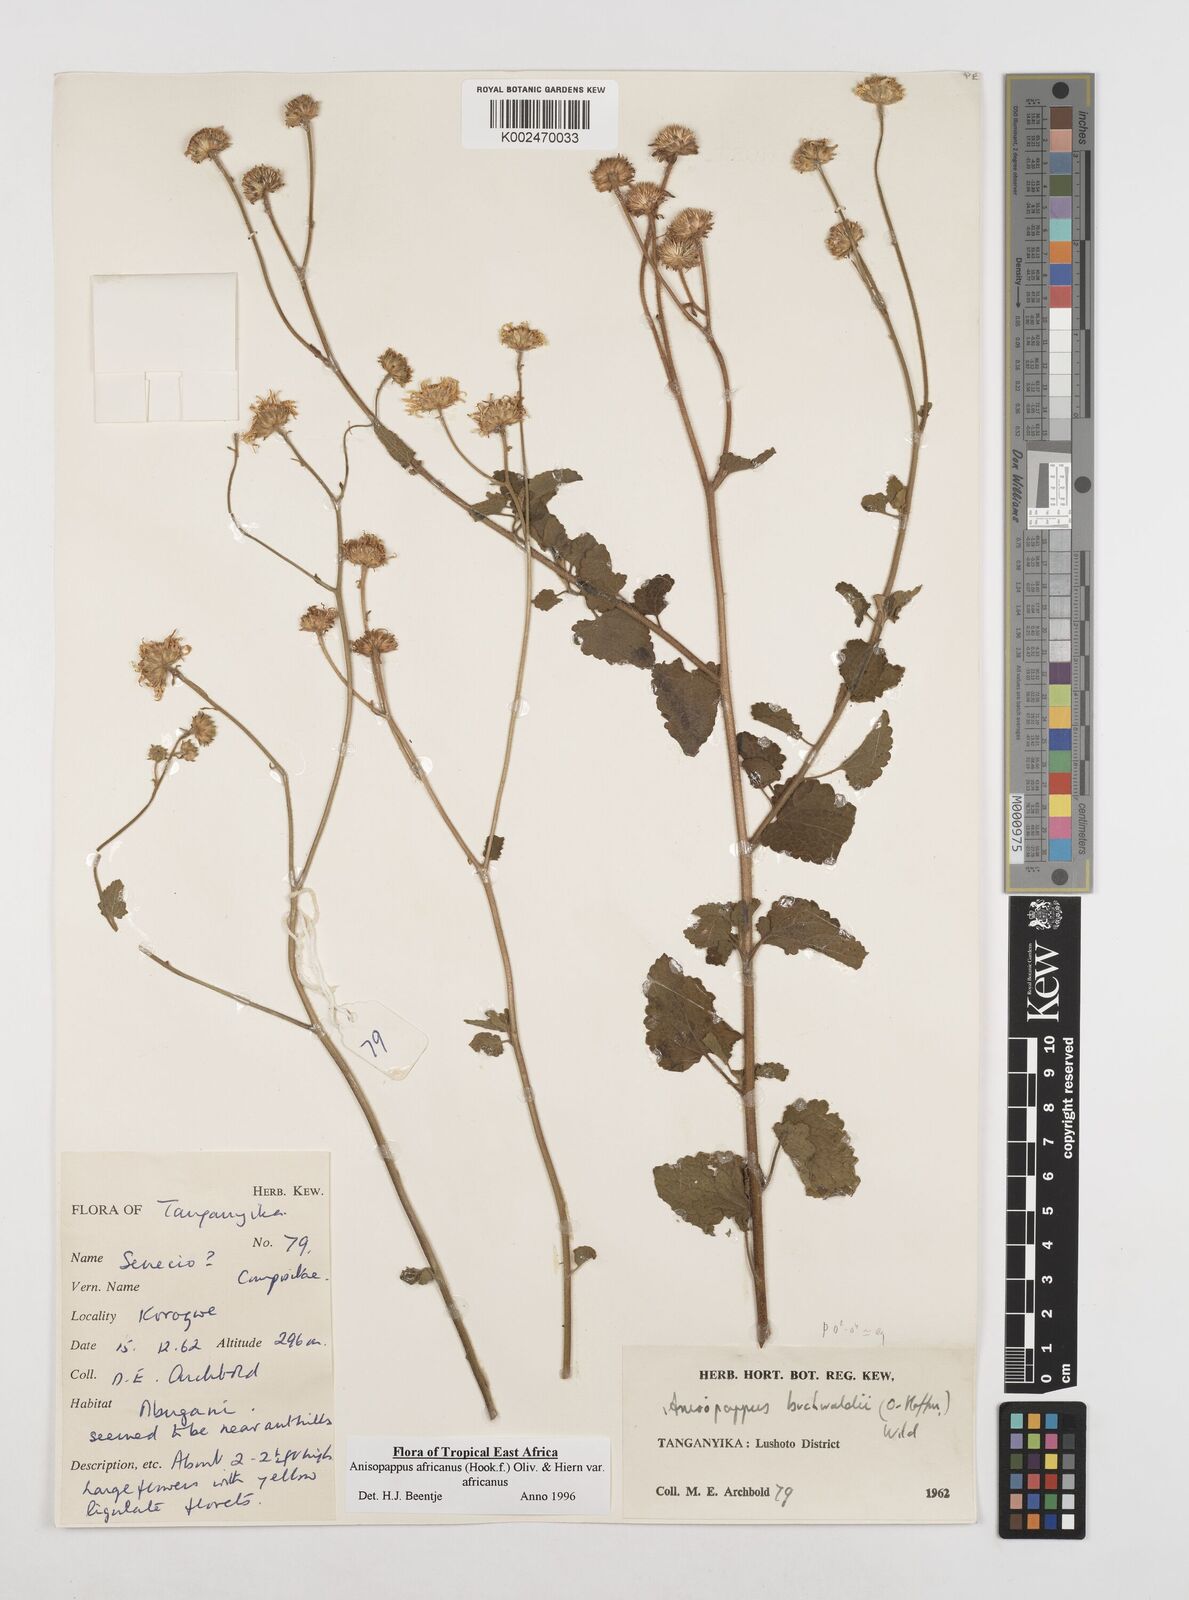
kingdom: Plantae
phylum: Tracheophyta
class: Magnoliopsida
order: Asterales
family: Asteraceae
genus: Anisopappus
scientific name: Anisopappus buchwaldii
